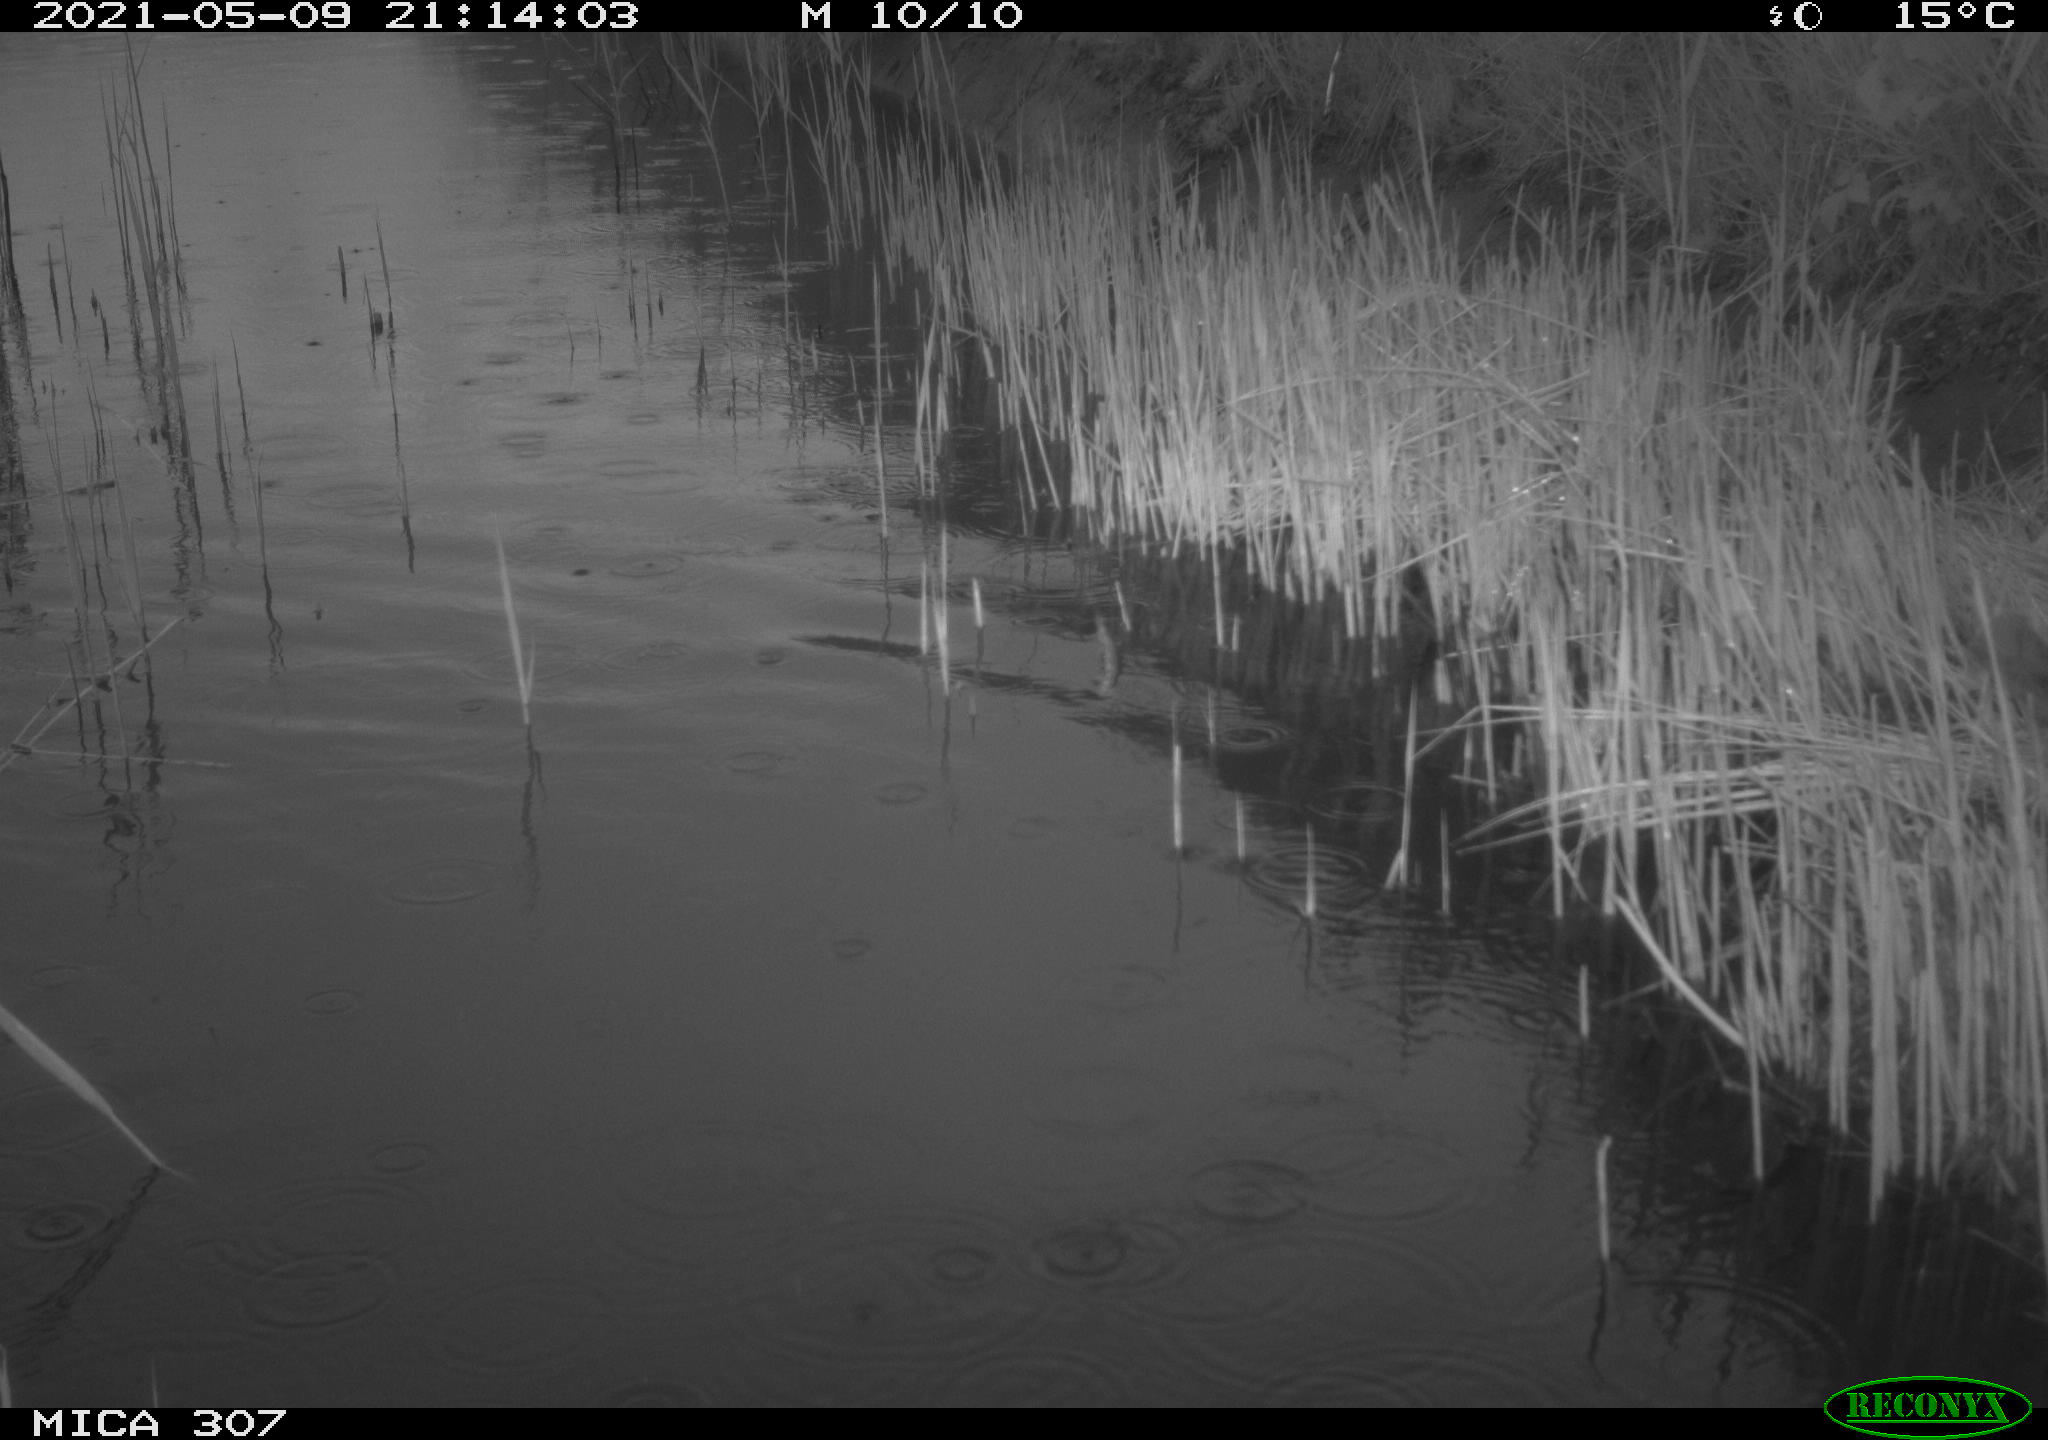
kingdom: Animalia
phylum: Chordata
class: Aves
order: Gruiformes
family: Rallidae
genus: Fulica
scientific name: Fulica atra
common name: Eurasian coot
